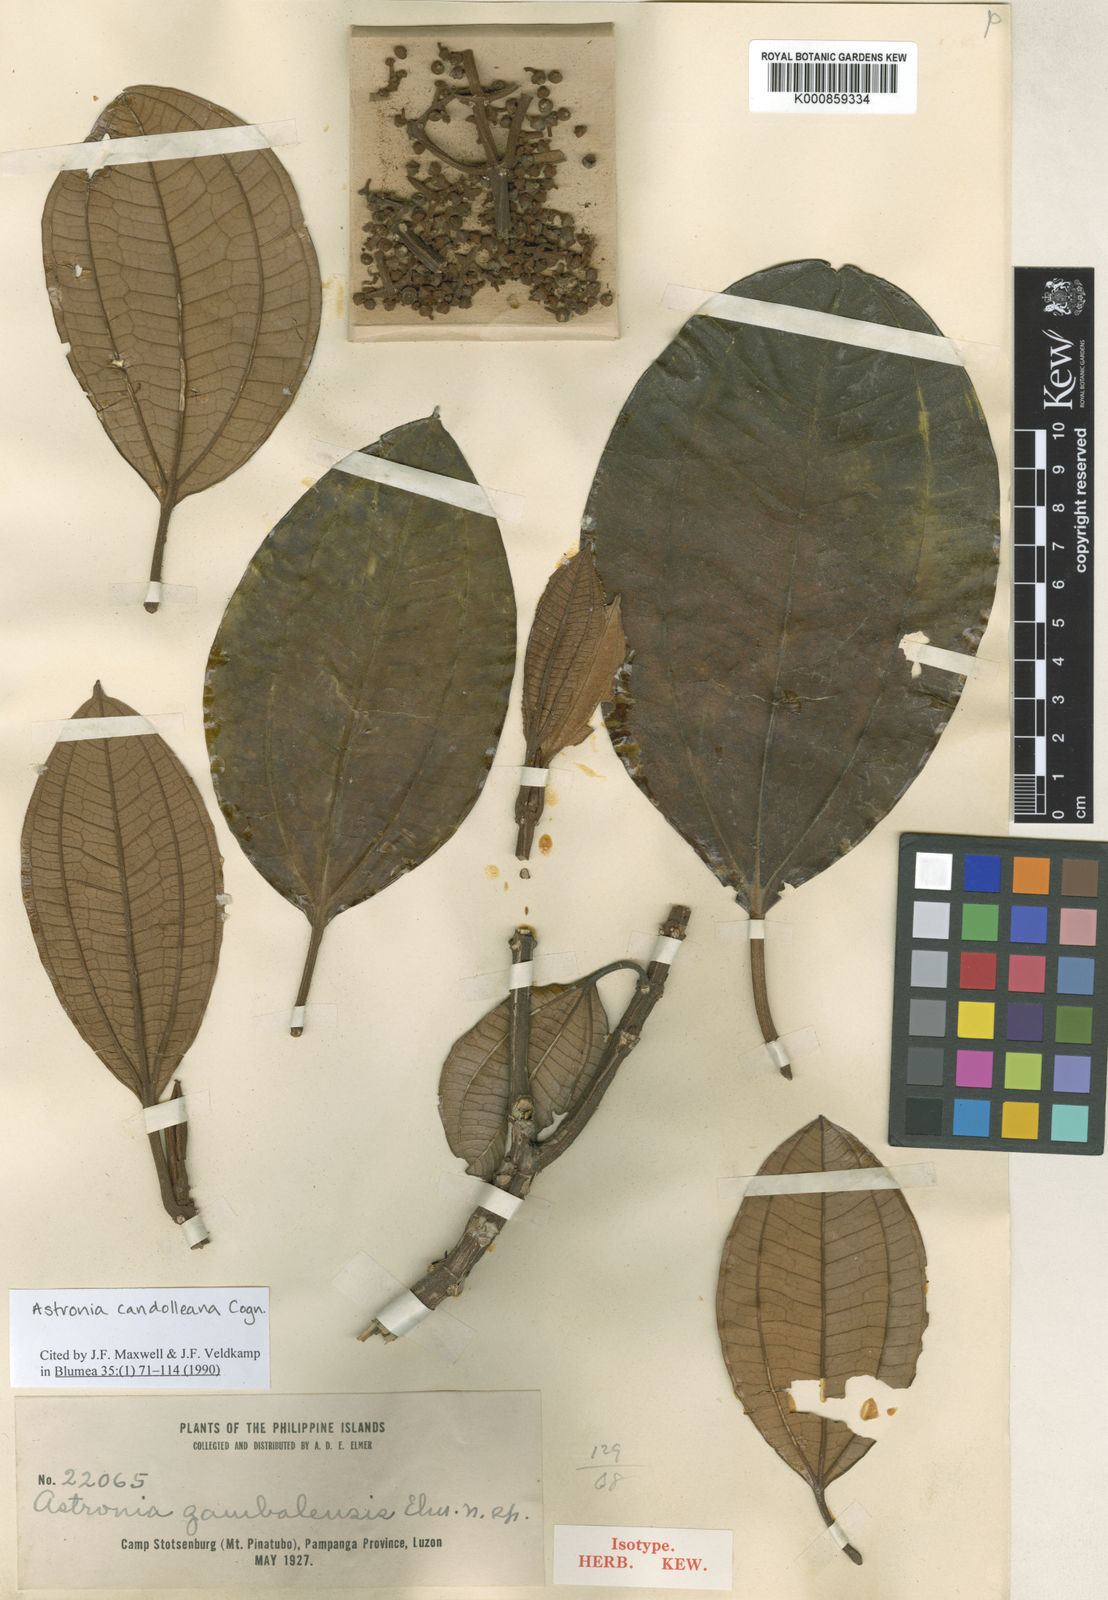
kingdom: Plantae
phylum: Tracheophyta
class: Magnoliopsida
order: Myrtales
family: Melastomataceae
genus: Astronia
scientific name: Astronia candolleana
